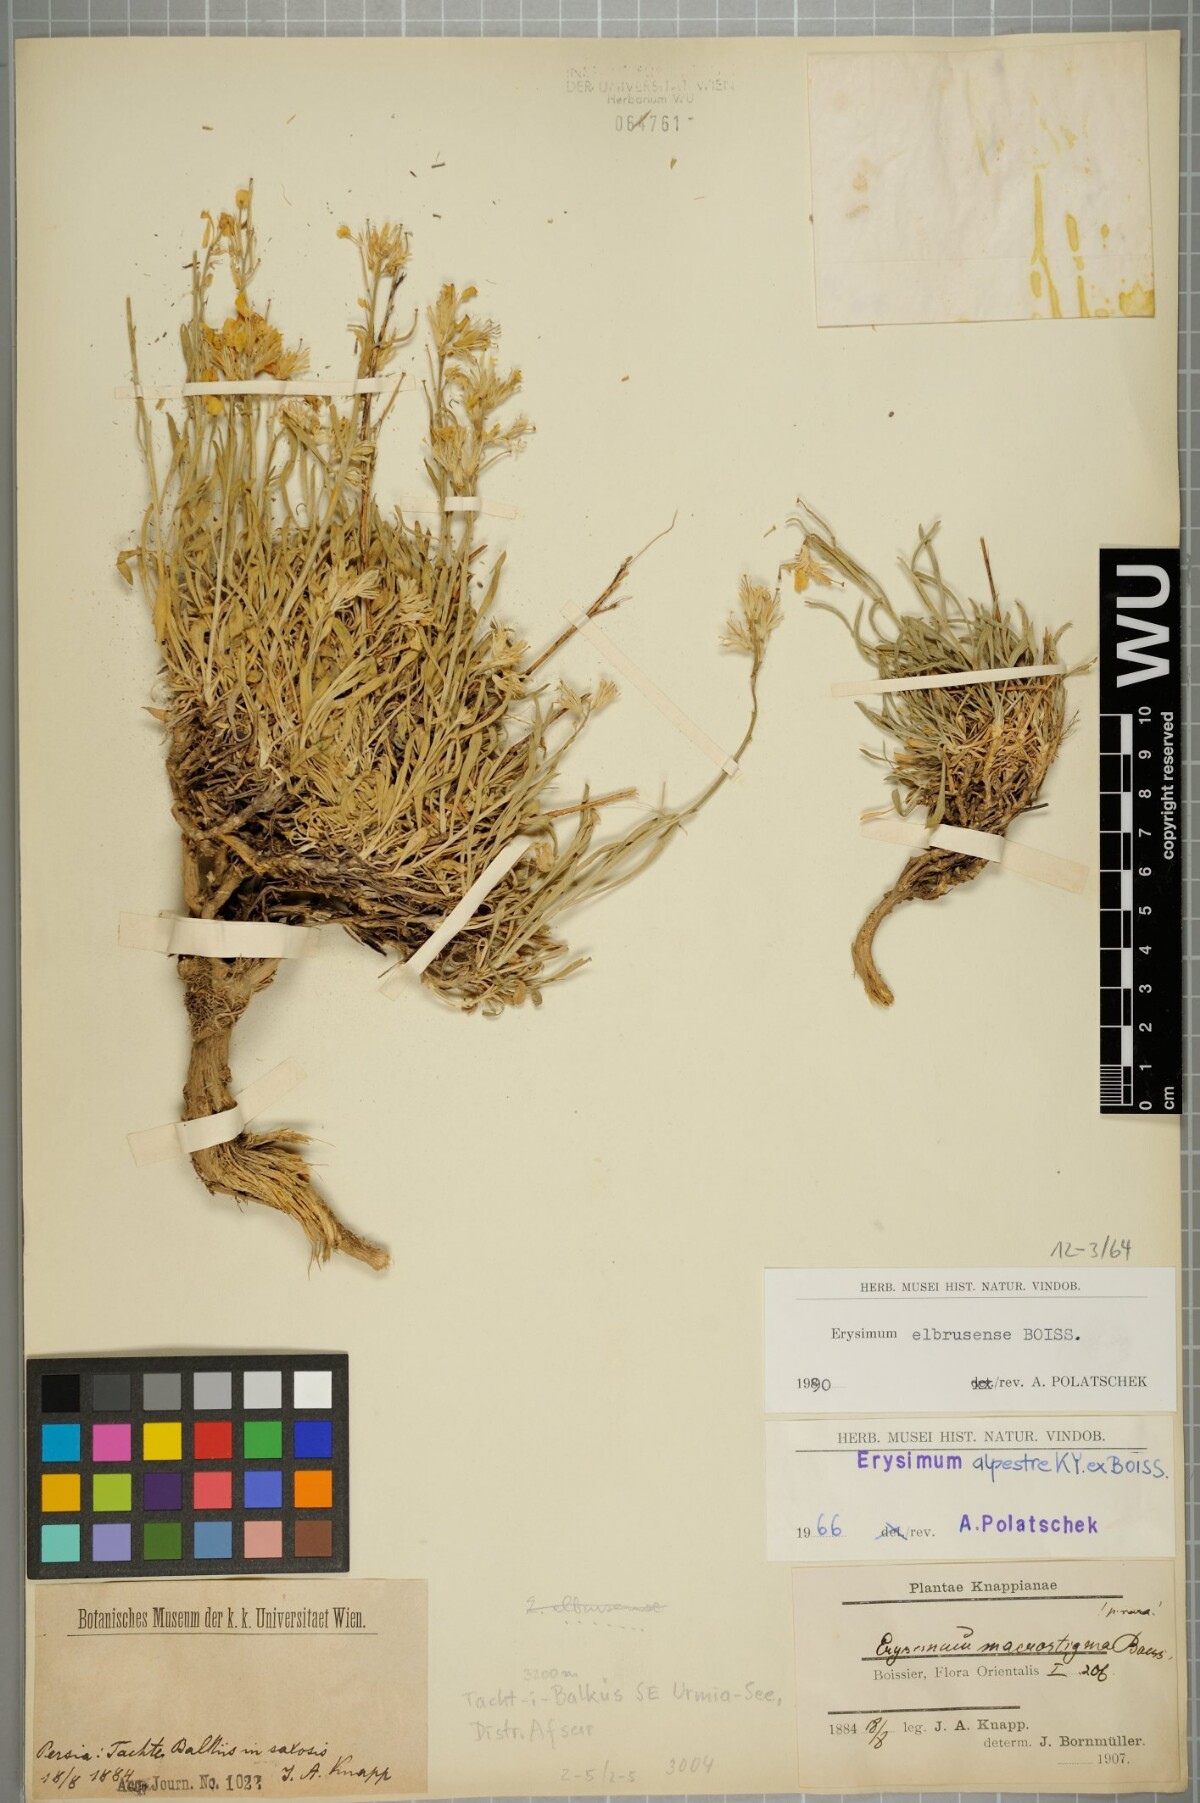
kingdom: Plantae
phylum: Tracheophyta
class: Magnoliopsida
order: Brassicales
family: Brassicaceae
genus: Erysimum
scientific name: Erysimum elbrusense
